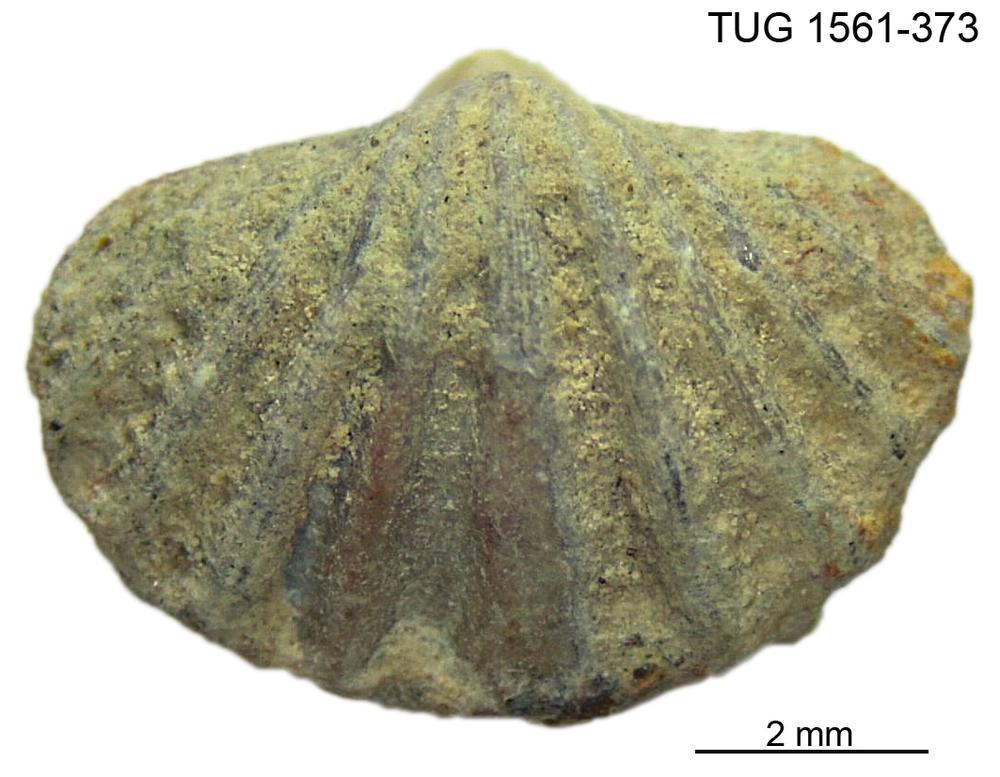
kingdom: Animalia
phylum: Arthropoda
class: Copepoda
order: Cyclopoida
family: Notodelphyidae
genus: Janhius
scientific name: Janhius Spirifer barrandi
